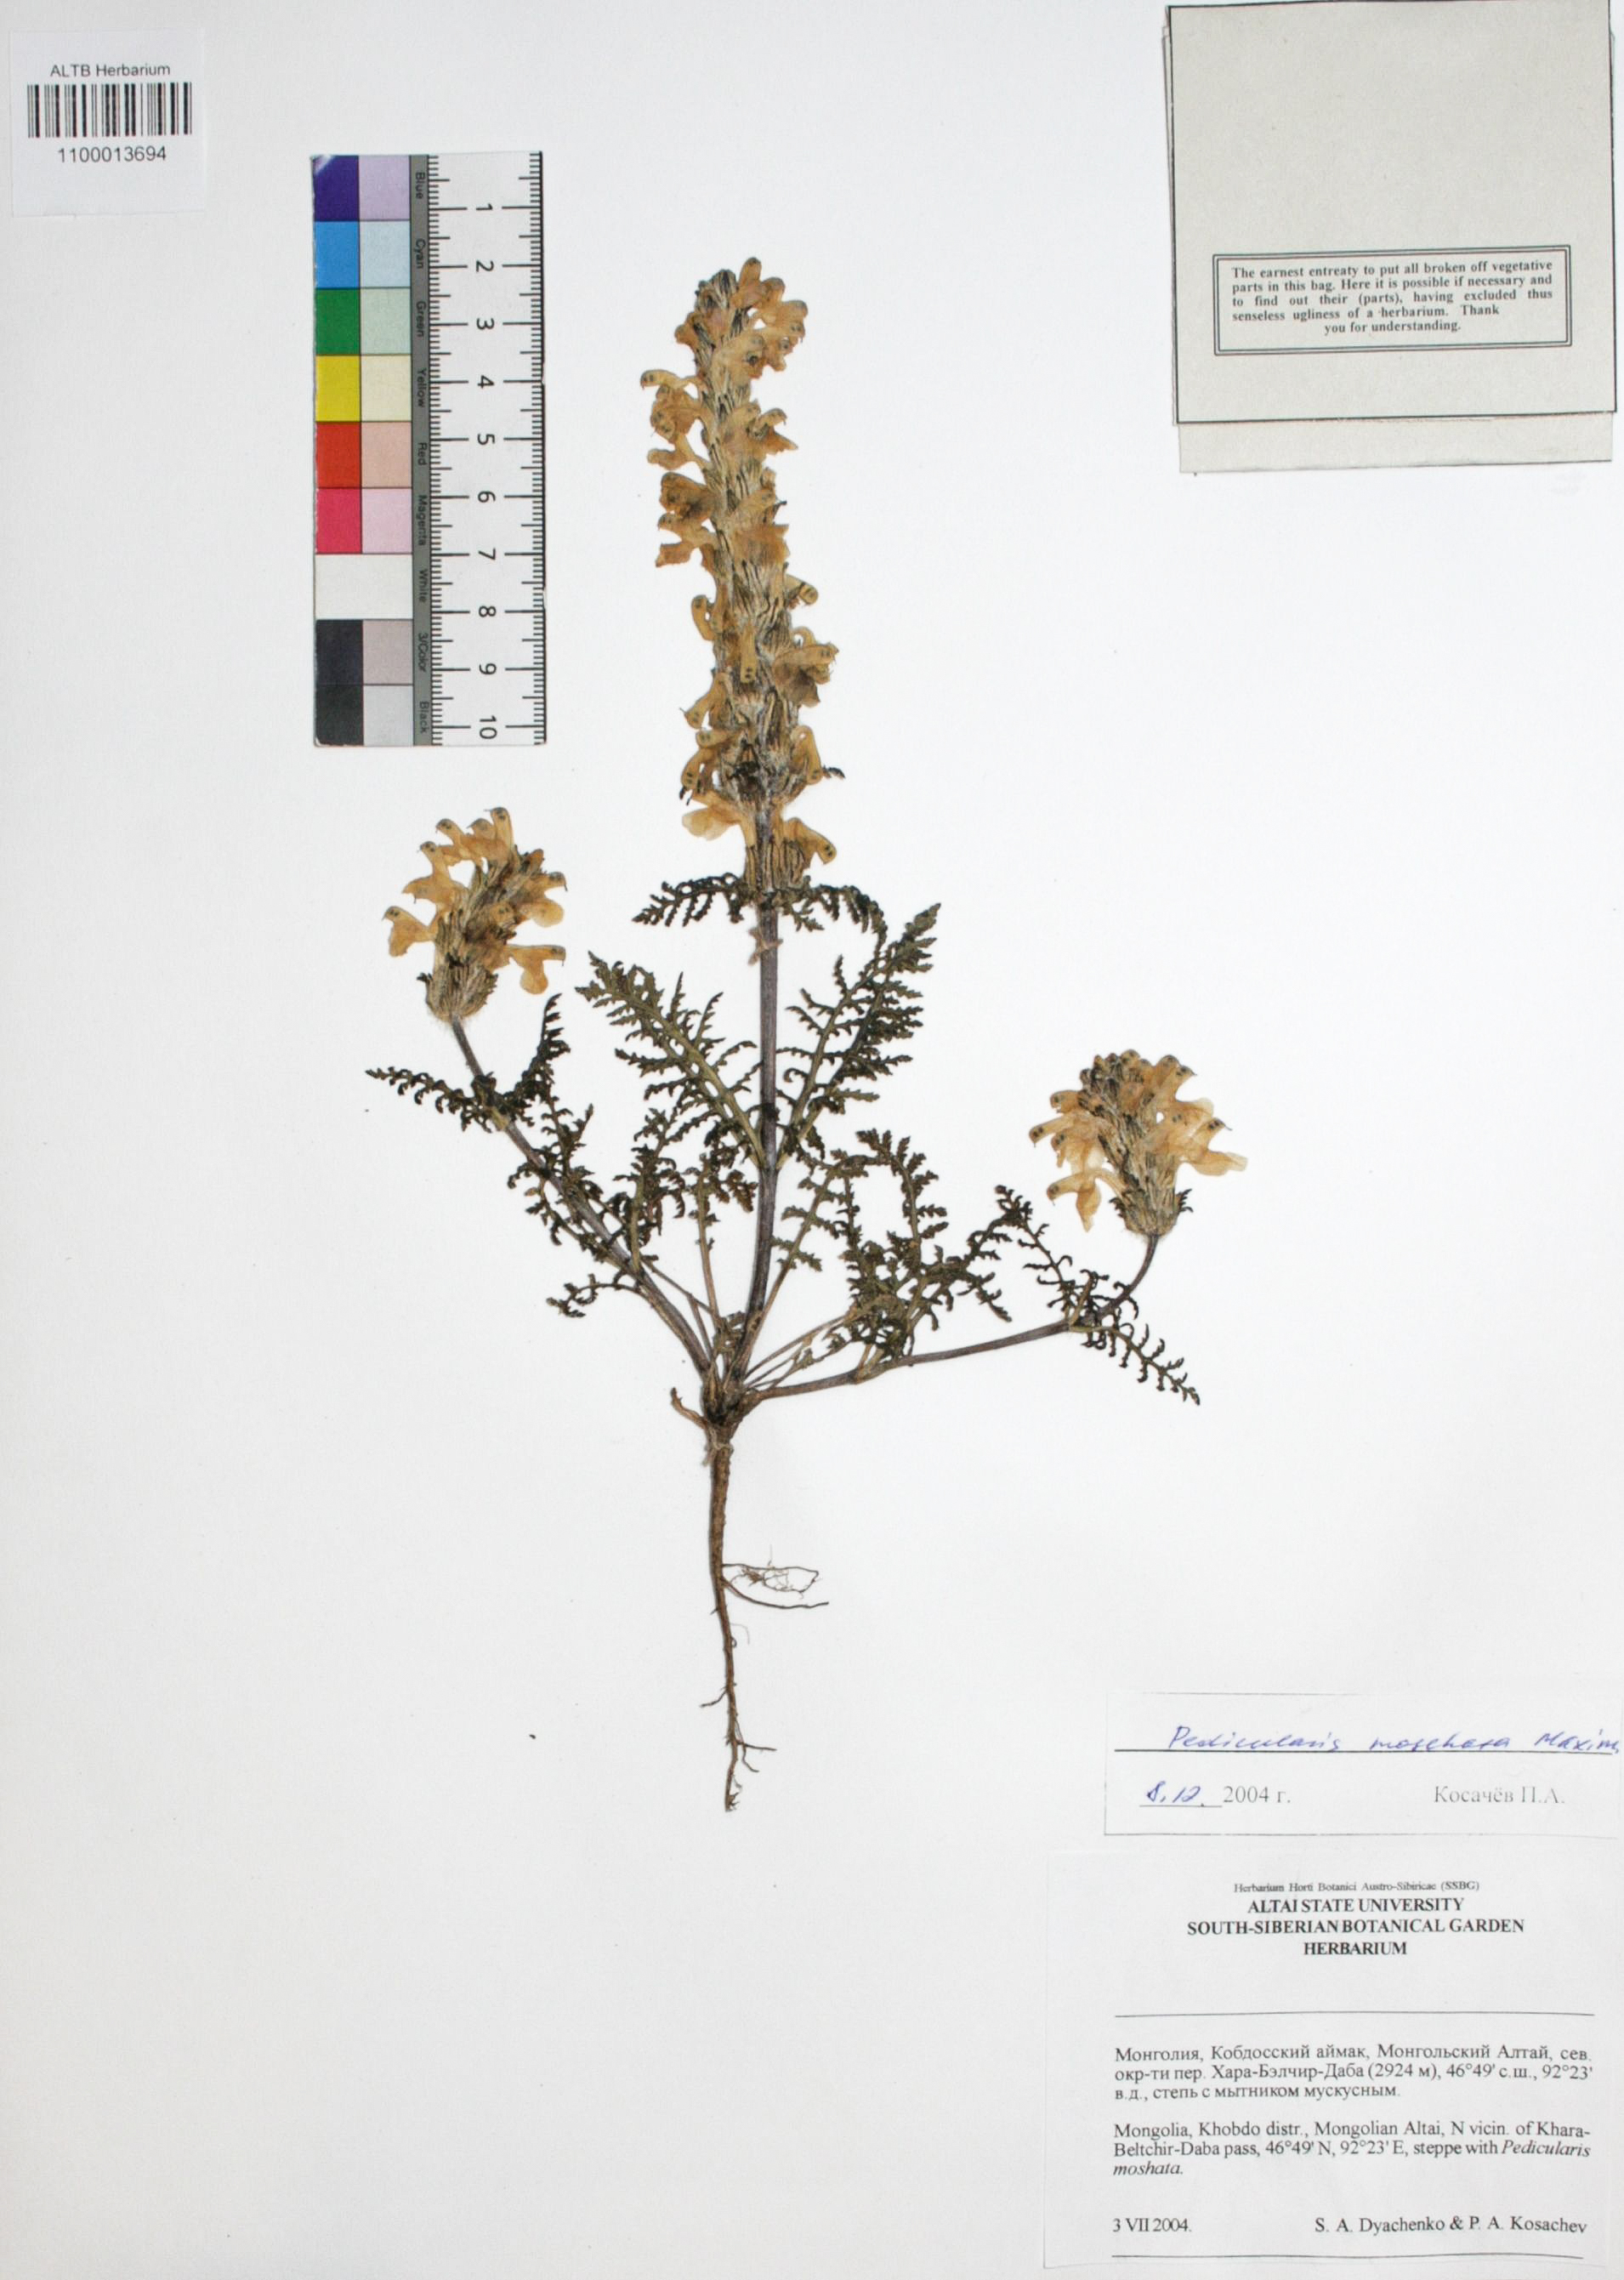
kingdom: Plantae
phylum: Tracheophyta
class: Magnoliopsida
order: Lamiales
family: Orobanchaceae
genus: Pedicularis
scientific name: Pedicularis moschata
